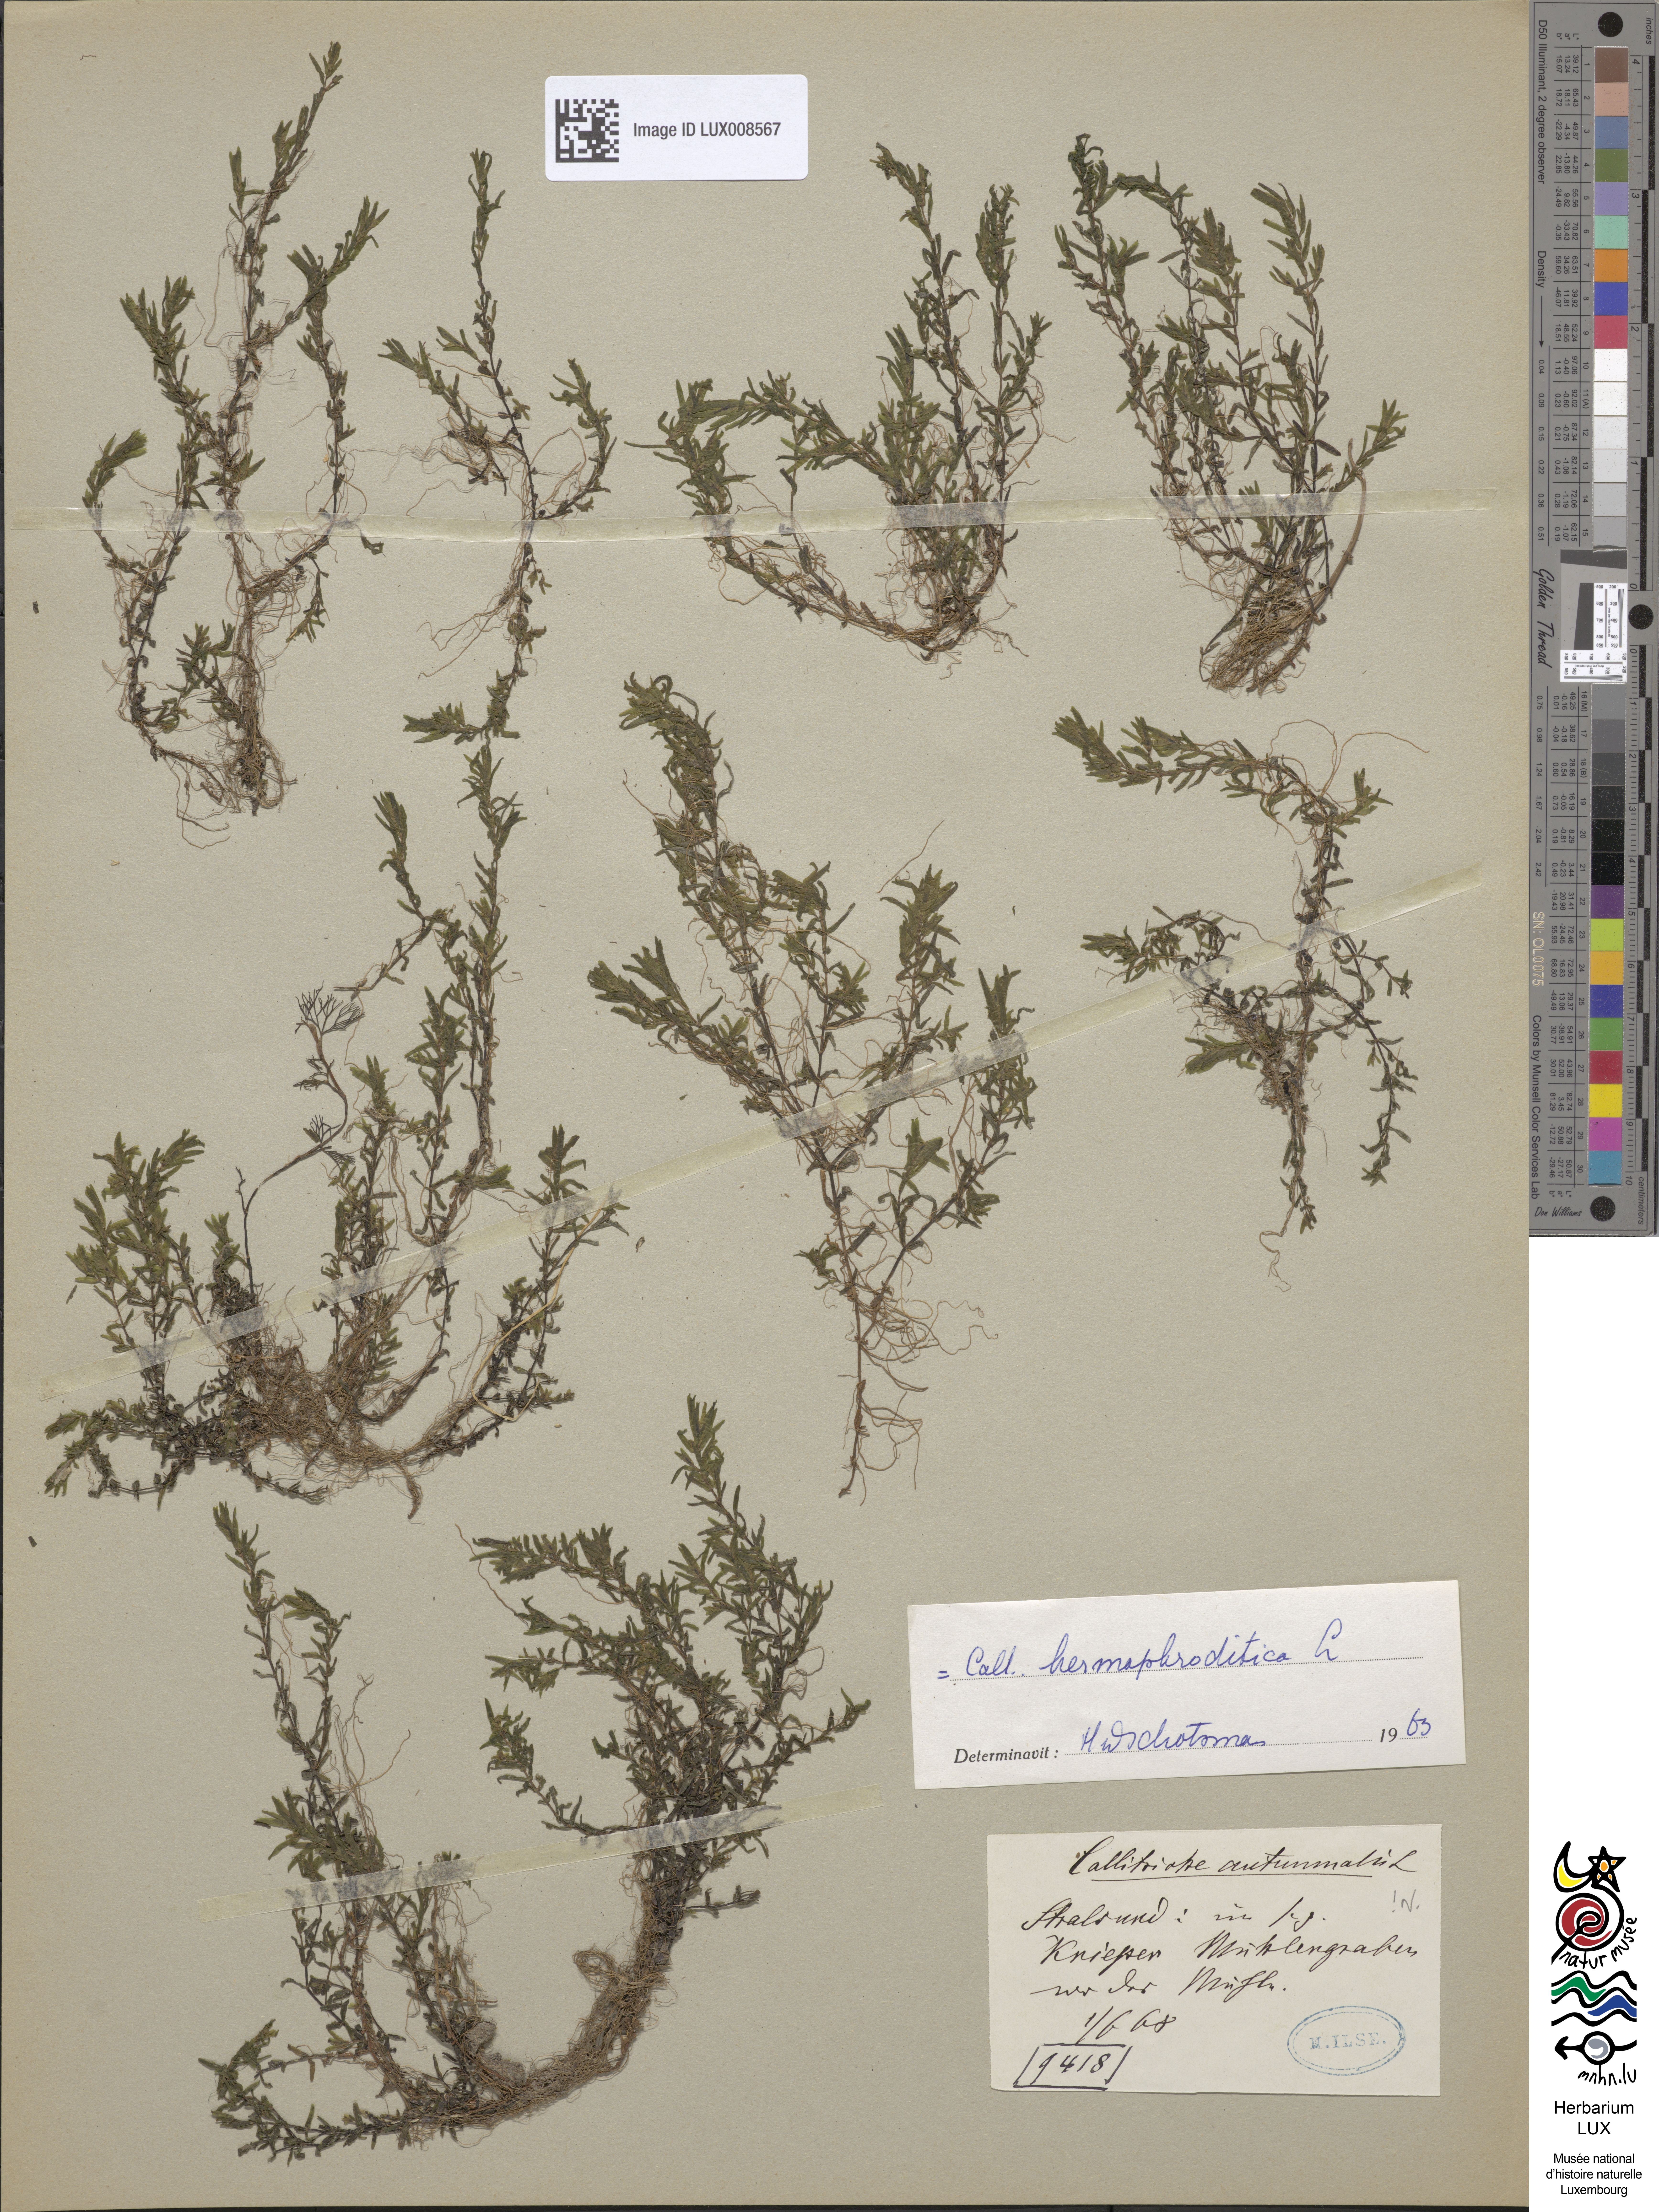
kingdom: Plantae
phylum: Tracheophyta
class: Magnoliopsida
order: Lamiales
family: Plantaginaceae
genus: Callitriche
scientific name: Callitriche hermaphroditica
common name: Autumnal water-starwort
